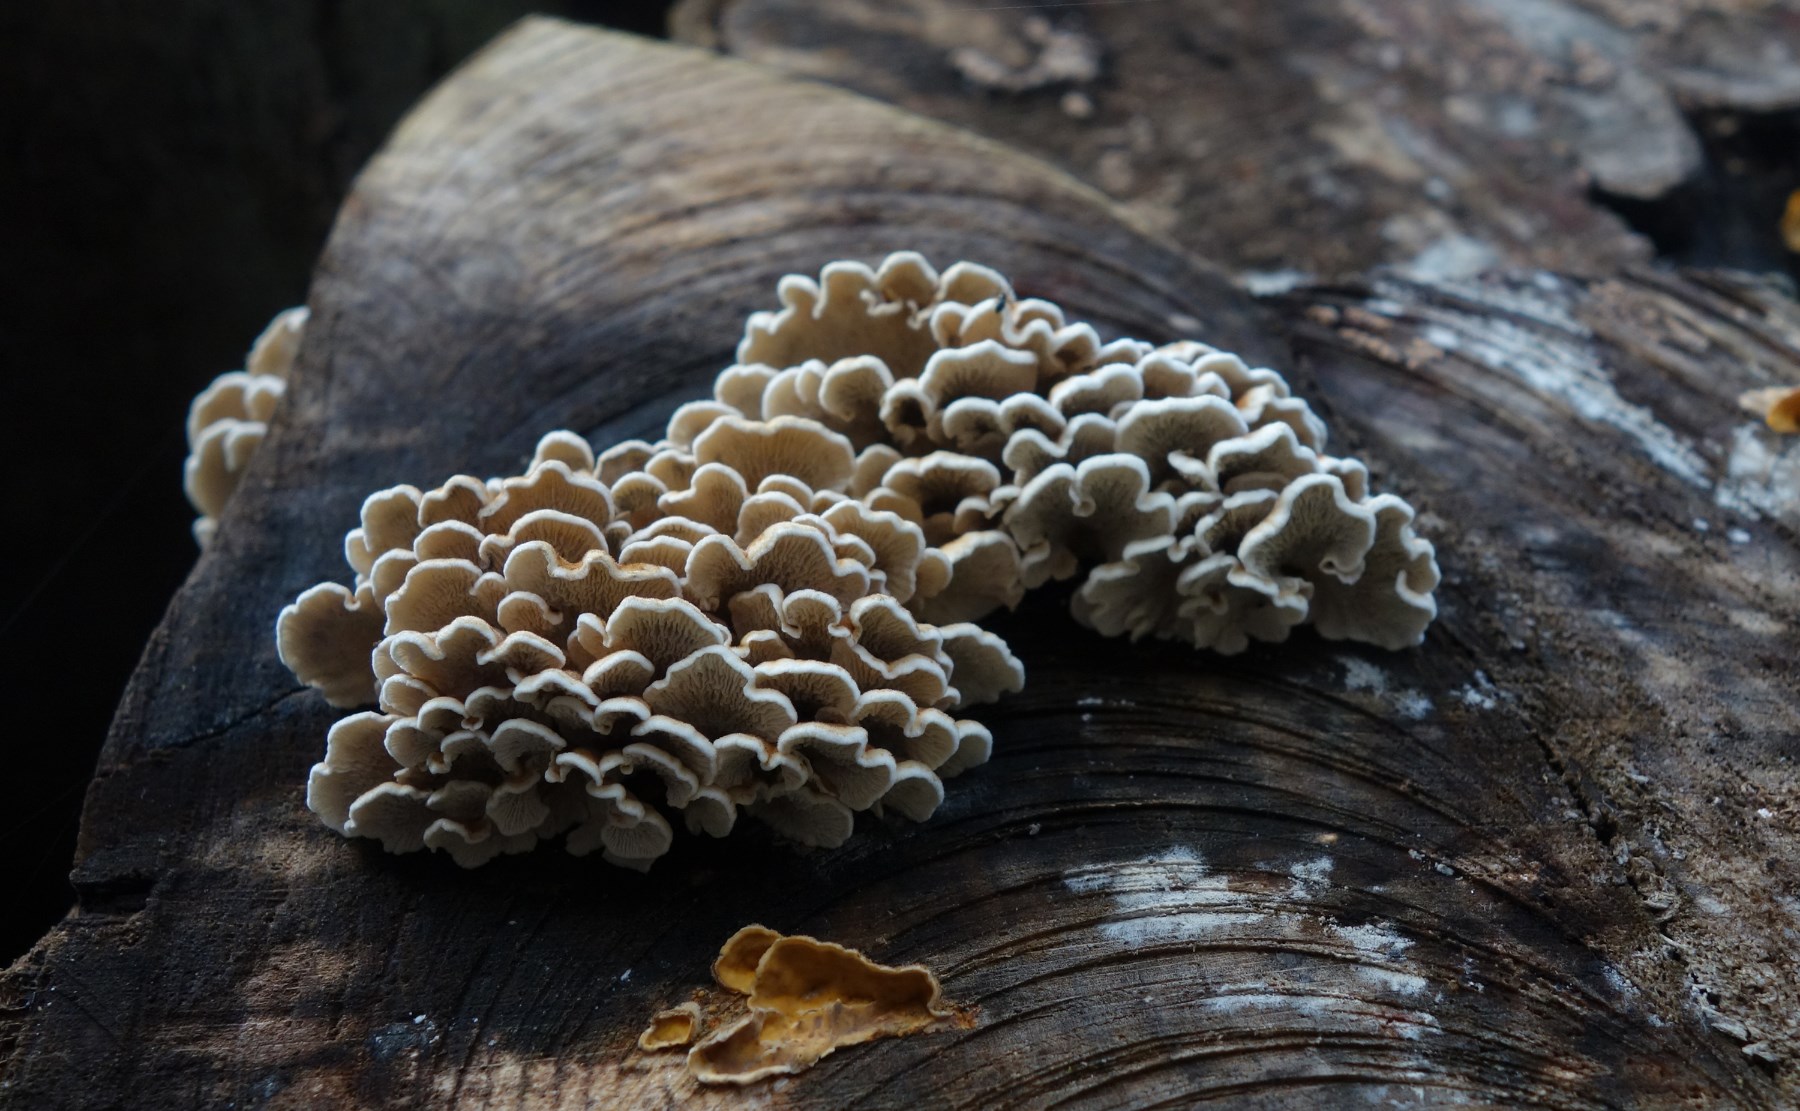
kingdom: Fungi
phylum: Basidiomycota
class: Agaricomycetes
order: Amylocorticiales
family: Amylocorticiaceae
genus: Plicaturopsis
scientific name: Plicaturopsis crispa
